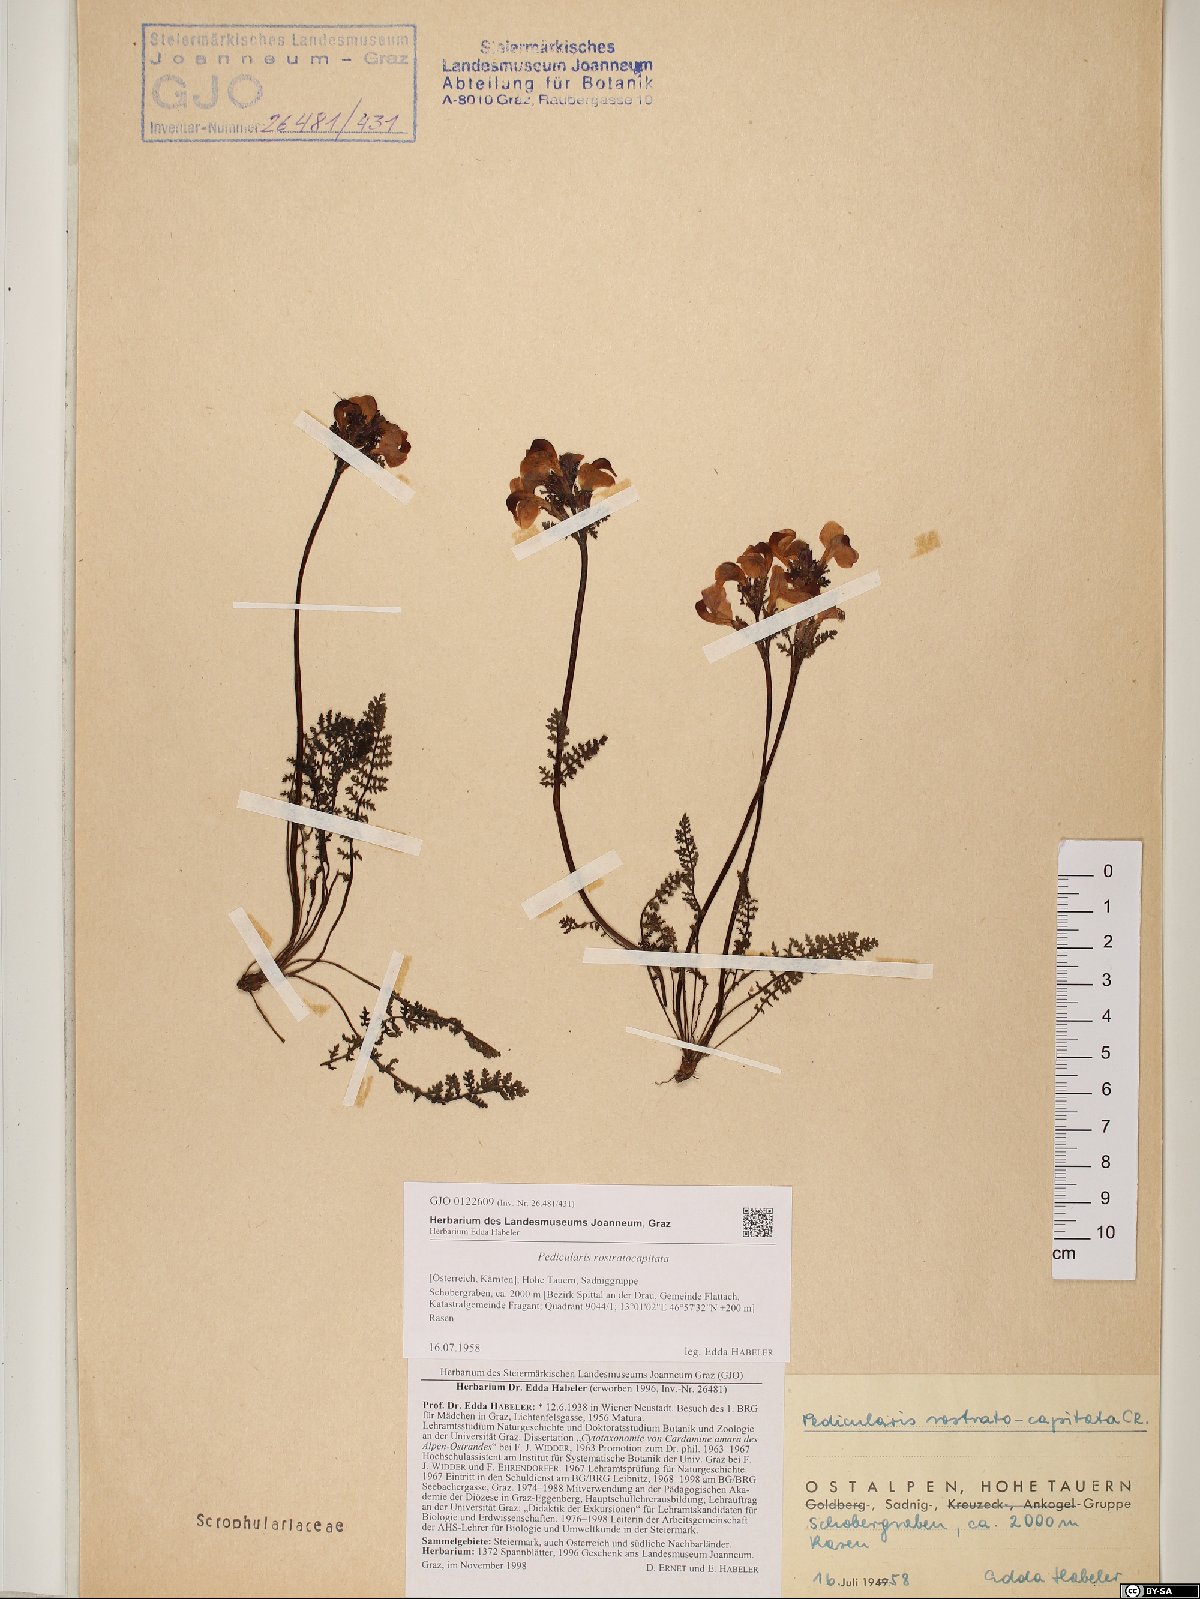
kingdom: Plantae
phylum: Tracheophyta
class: Magnoliopsida
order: Lamiales
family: Orobanchaceae
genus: Pedicularis
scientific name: Pedicularis rostratocapitata
